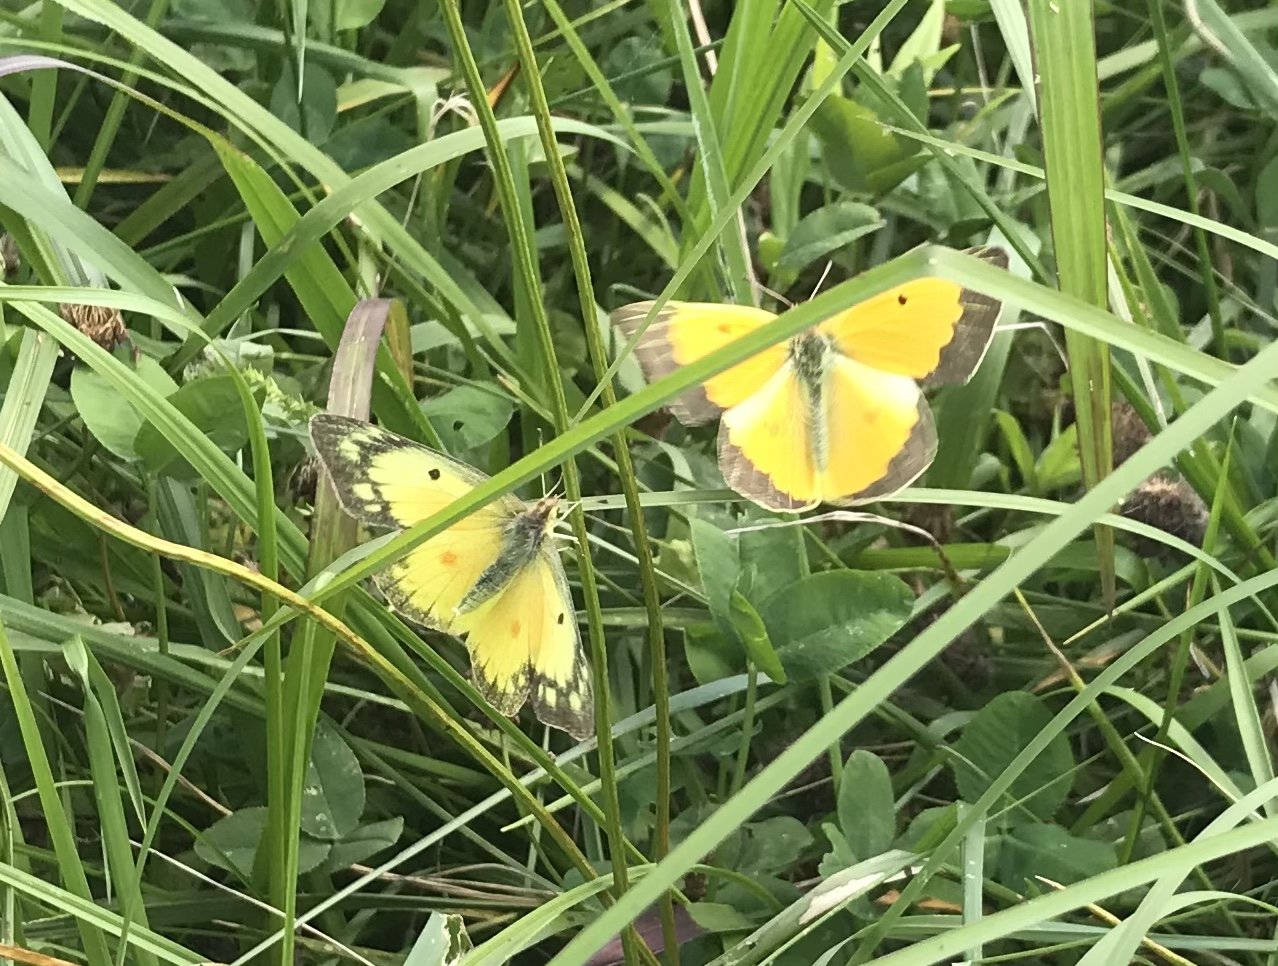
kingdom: Animalia
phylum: Arthropoda
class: Insecta
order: Lepidoptera
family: Pieridae
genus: Colias
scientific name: Colias eurytheme
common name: Orange Sulphur
